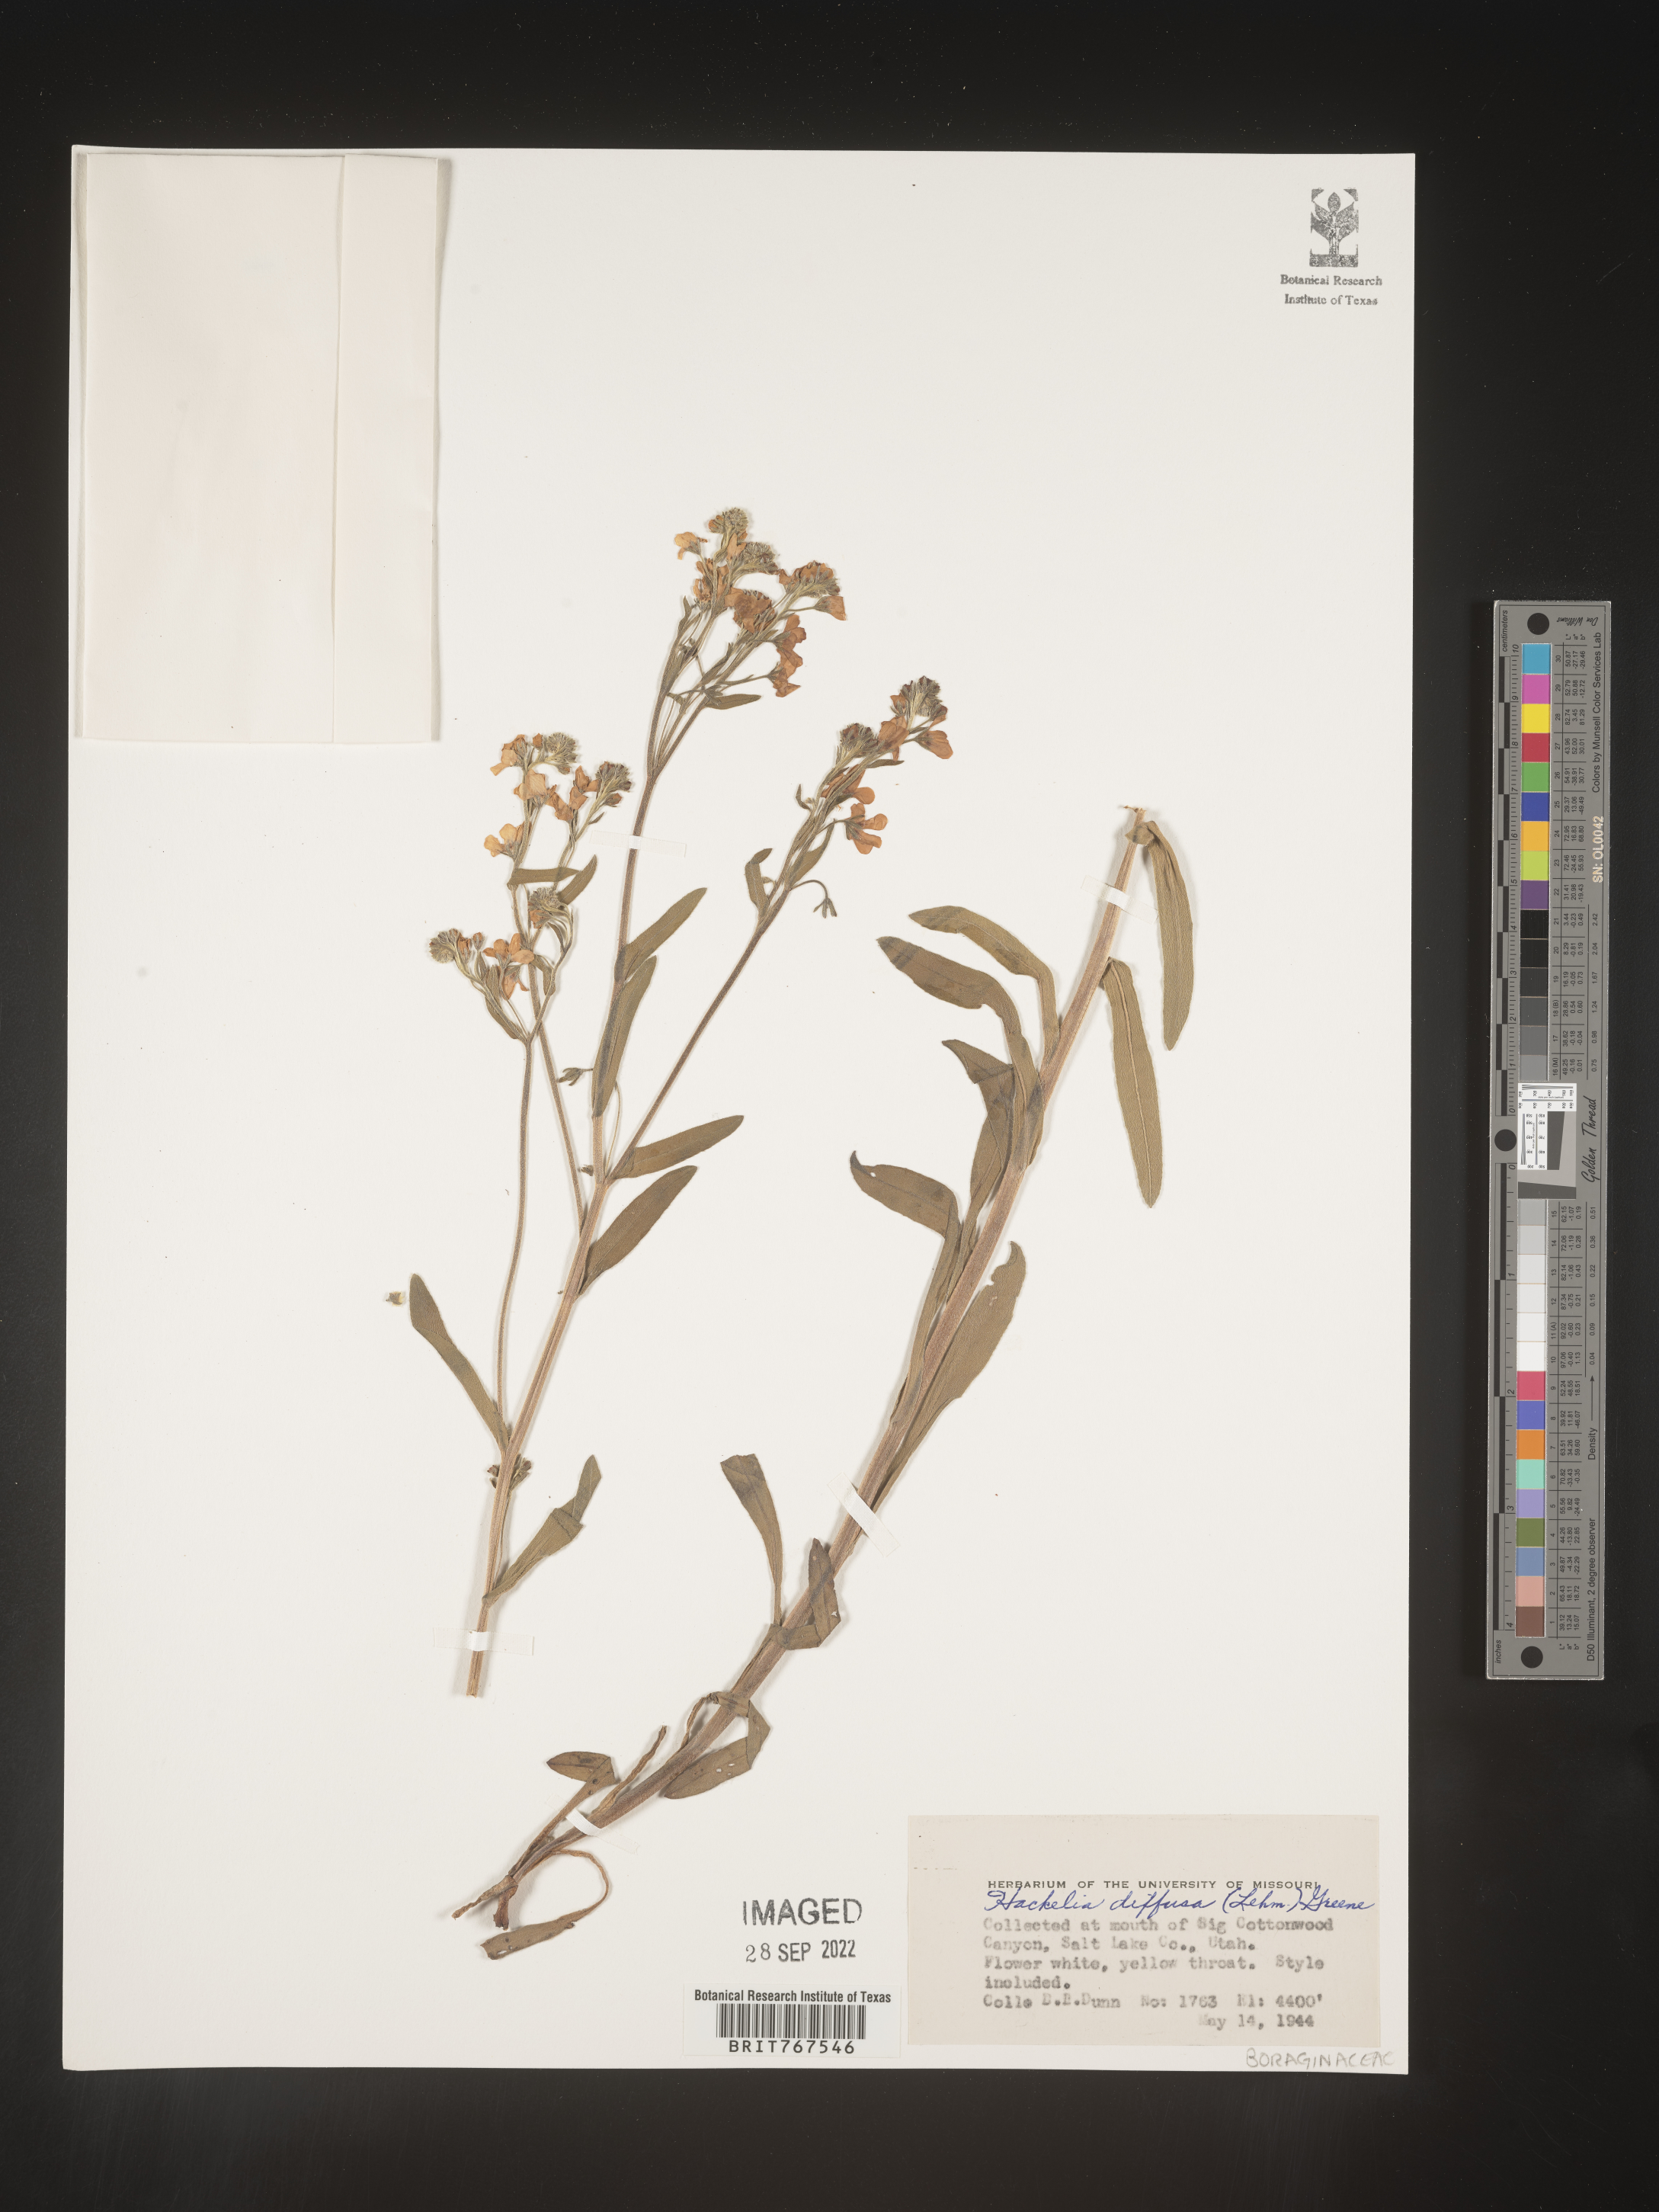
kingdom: Plantae
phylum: Tracheophyta
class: Magnoliopsida
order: Boraginales
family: Boraginaceae
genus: Hackelia
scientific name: Hackelia
